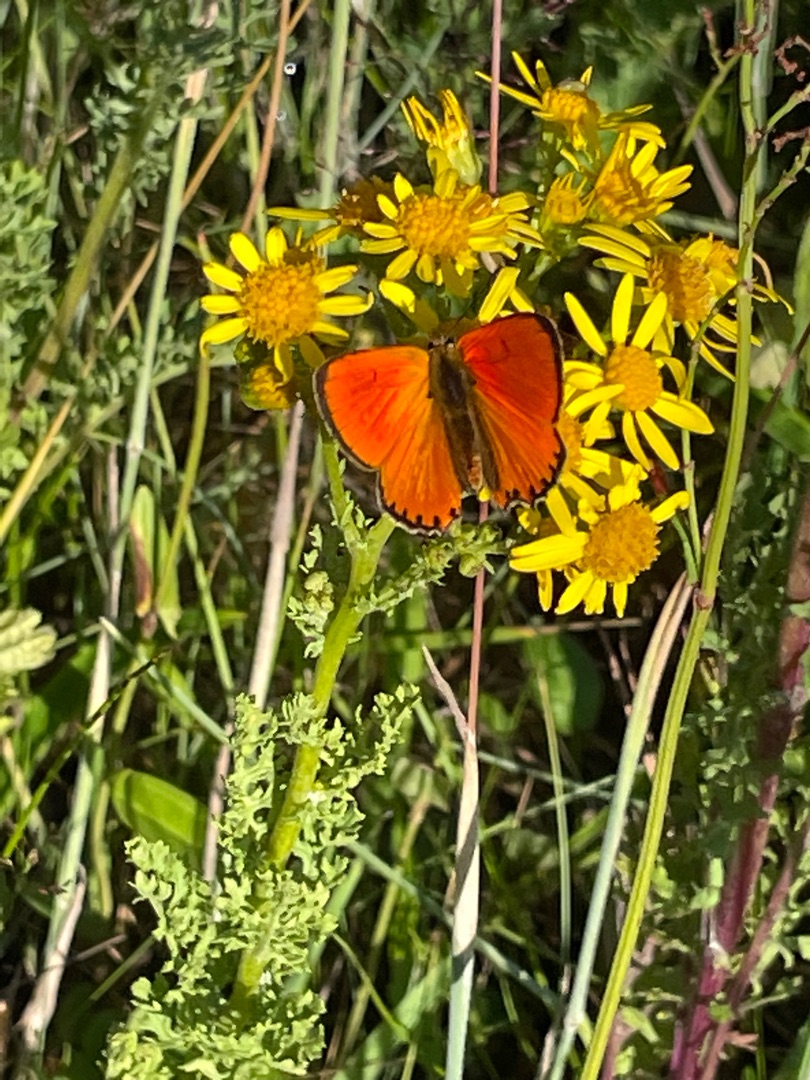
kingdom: Animalia
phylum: Arthropoda
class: Insecta
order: Lepidoptera
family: Lycaenidae
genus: Lycaena
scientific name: Lycaena virgaureae
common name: Dukatsommerfugl
